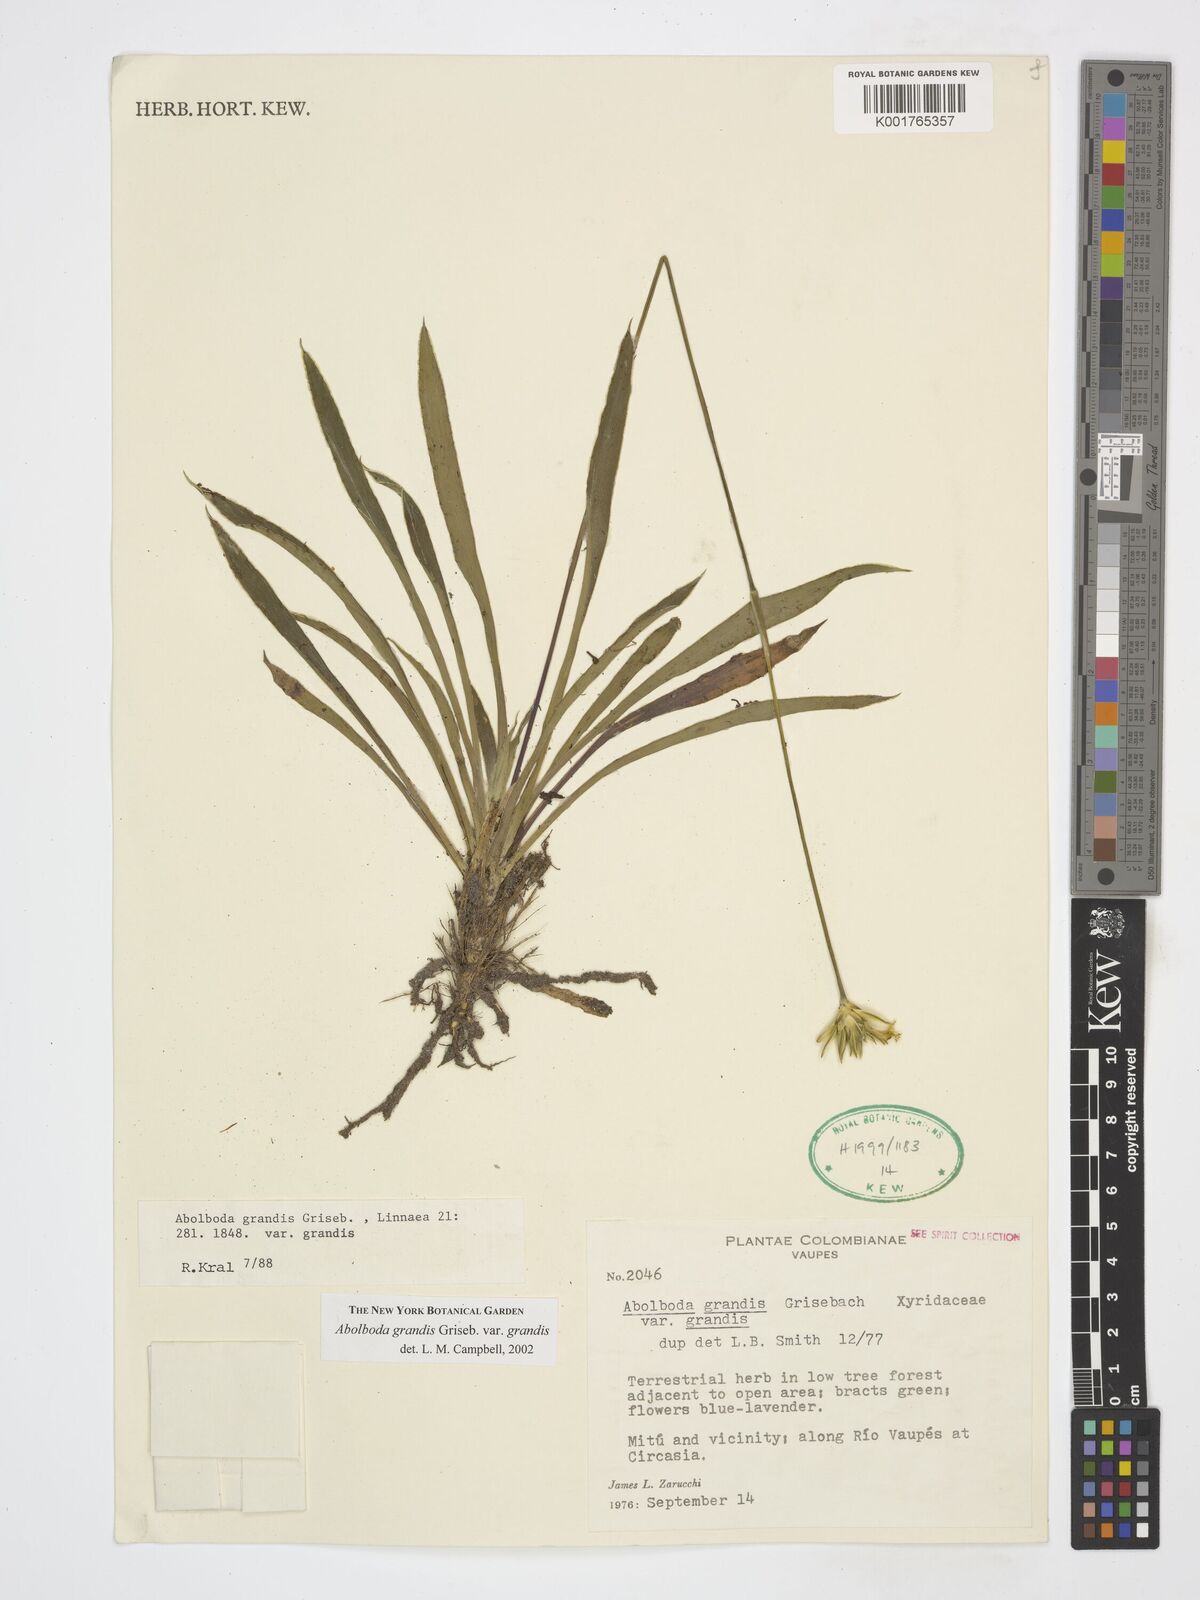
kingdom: Plantae
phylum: Tracheophyta
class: Liliopsida
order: Poales
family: Xyridaceae
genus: Abolboda
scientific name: Abolboda grandis
